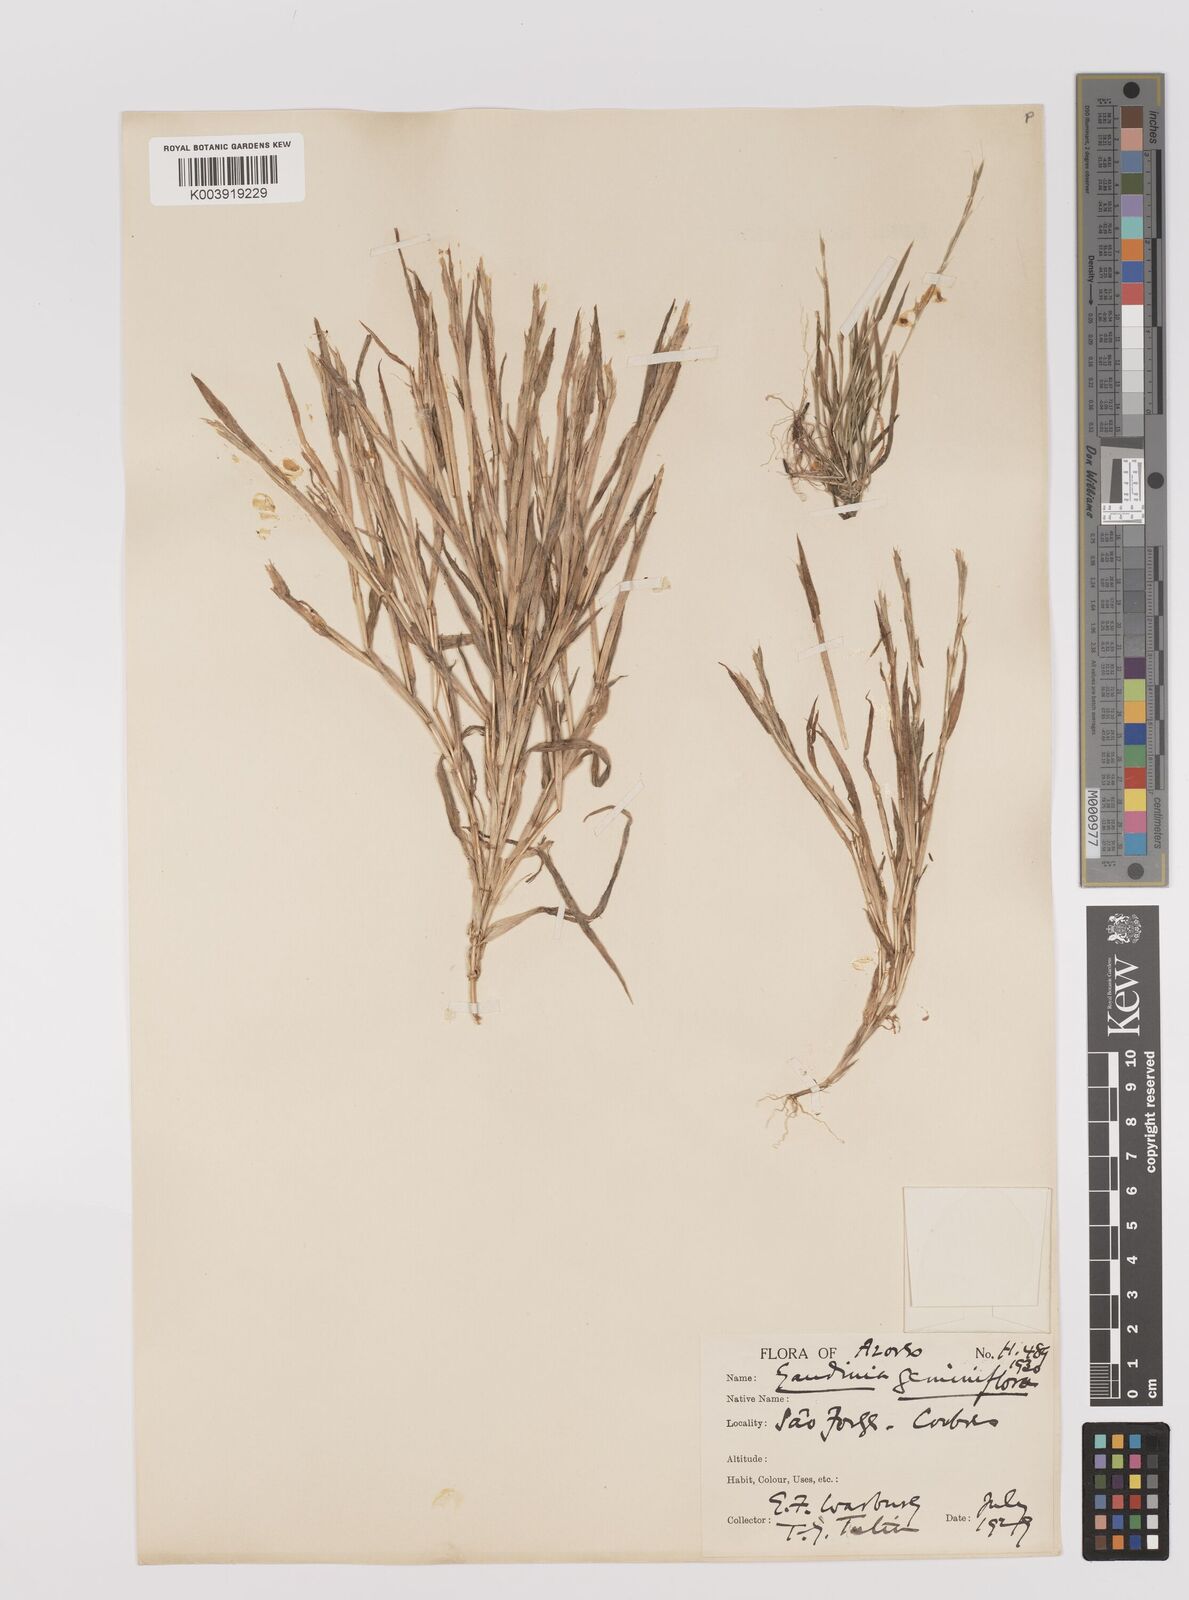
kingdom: Plantae
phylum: Tracheophyta
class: Liliopsida
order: Poales
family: Poaceae
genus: Gaudinia
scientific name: Gaudinia coarctata
